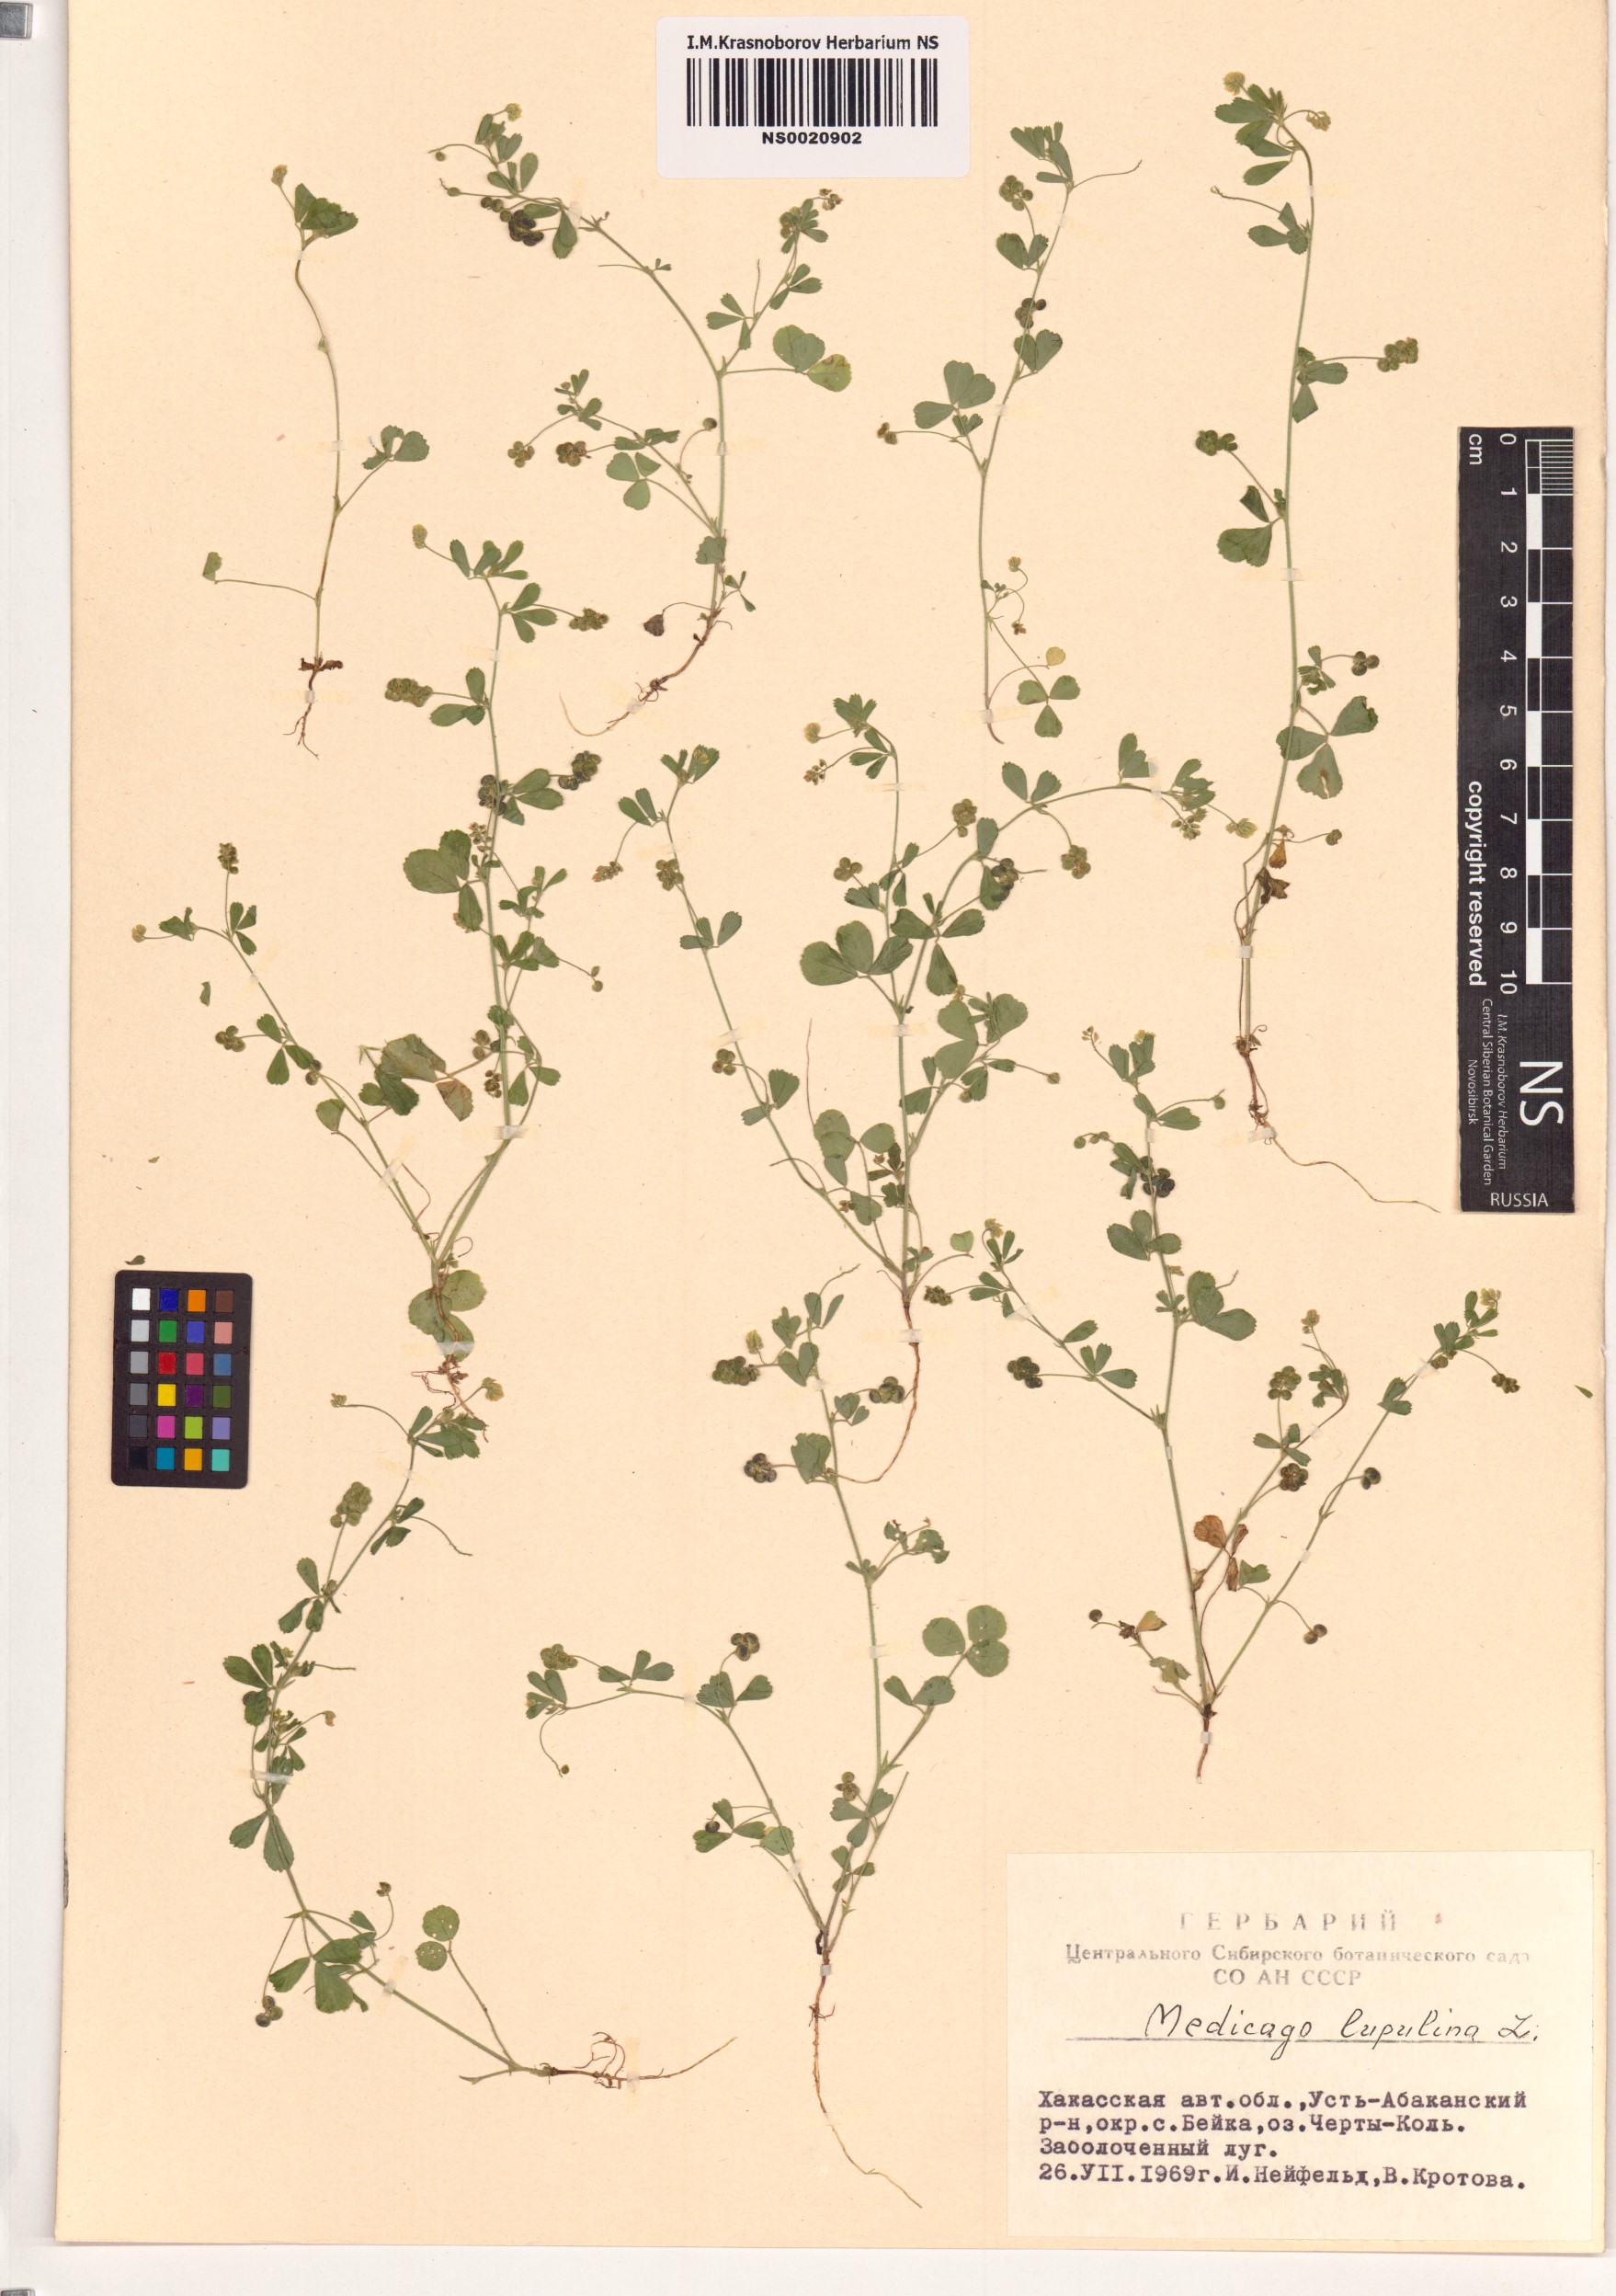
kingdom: Plantae
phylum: Tracheophyta
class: Magnoliopsida
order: Fabales
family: Fabaceae
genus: Medicago
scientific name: Medicago lupulina
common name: Black medick
